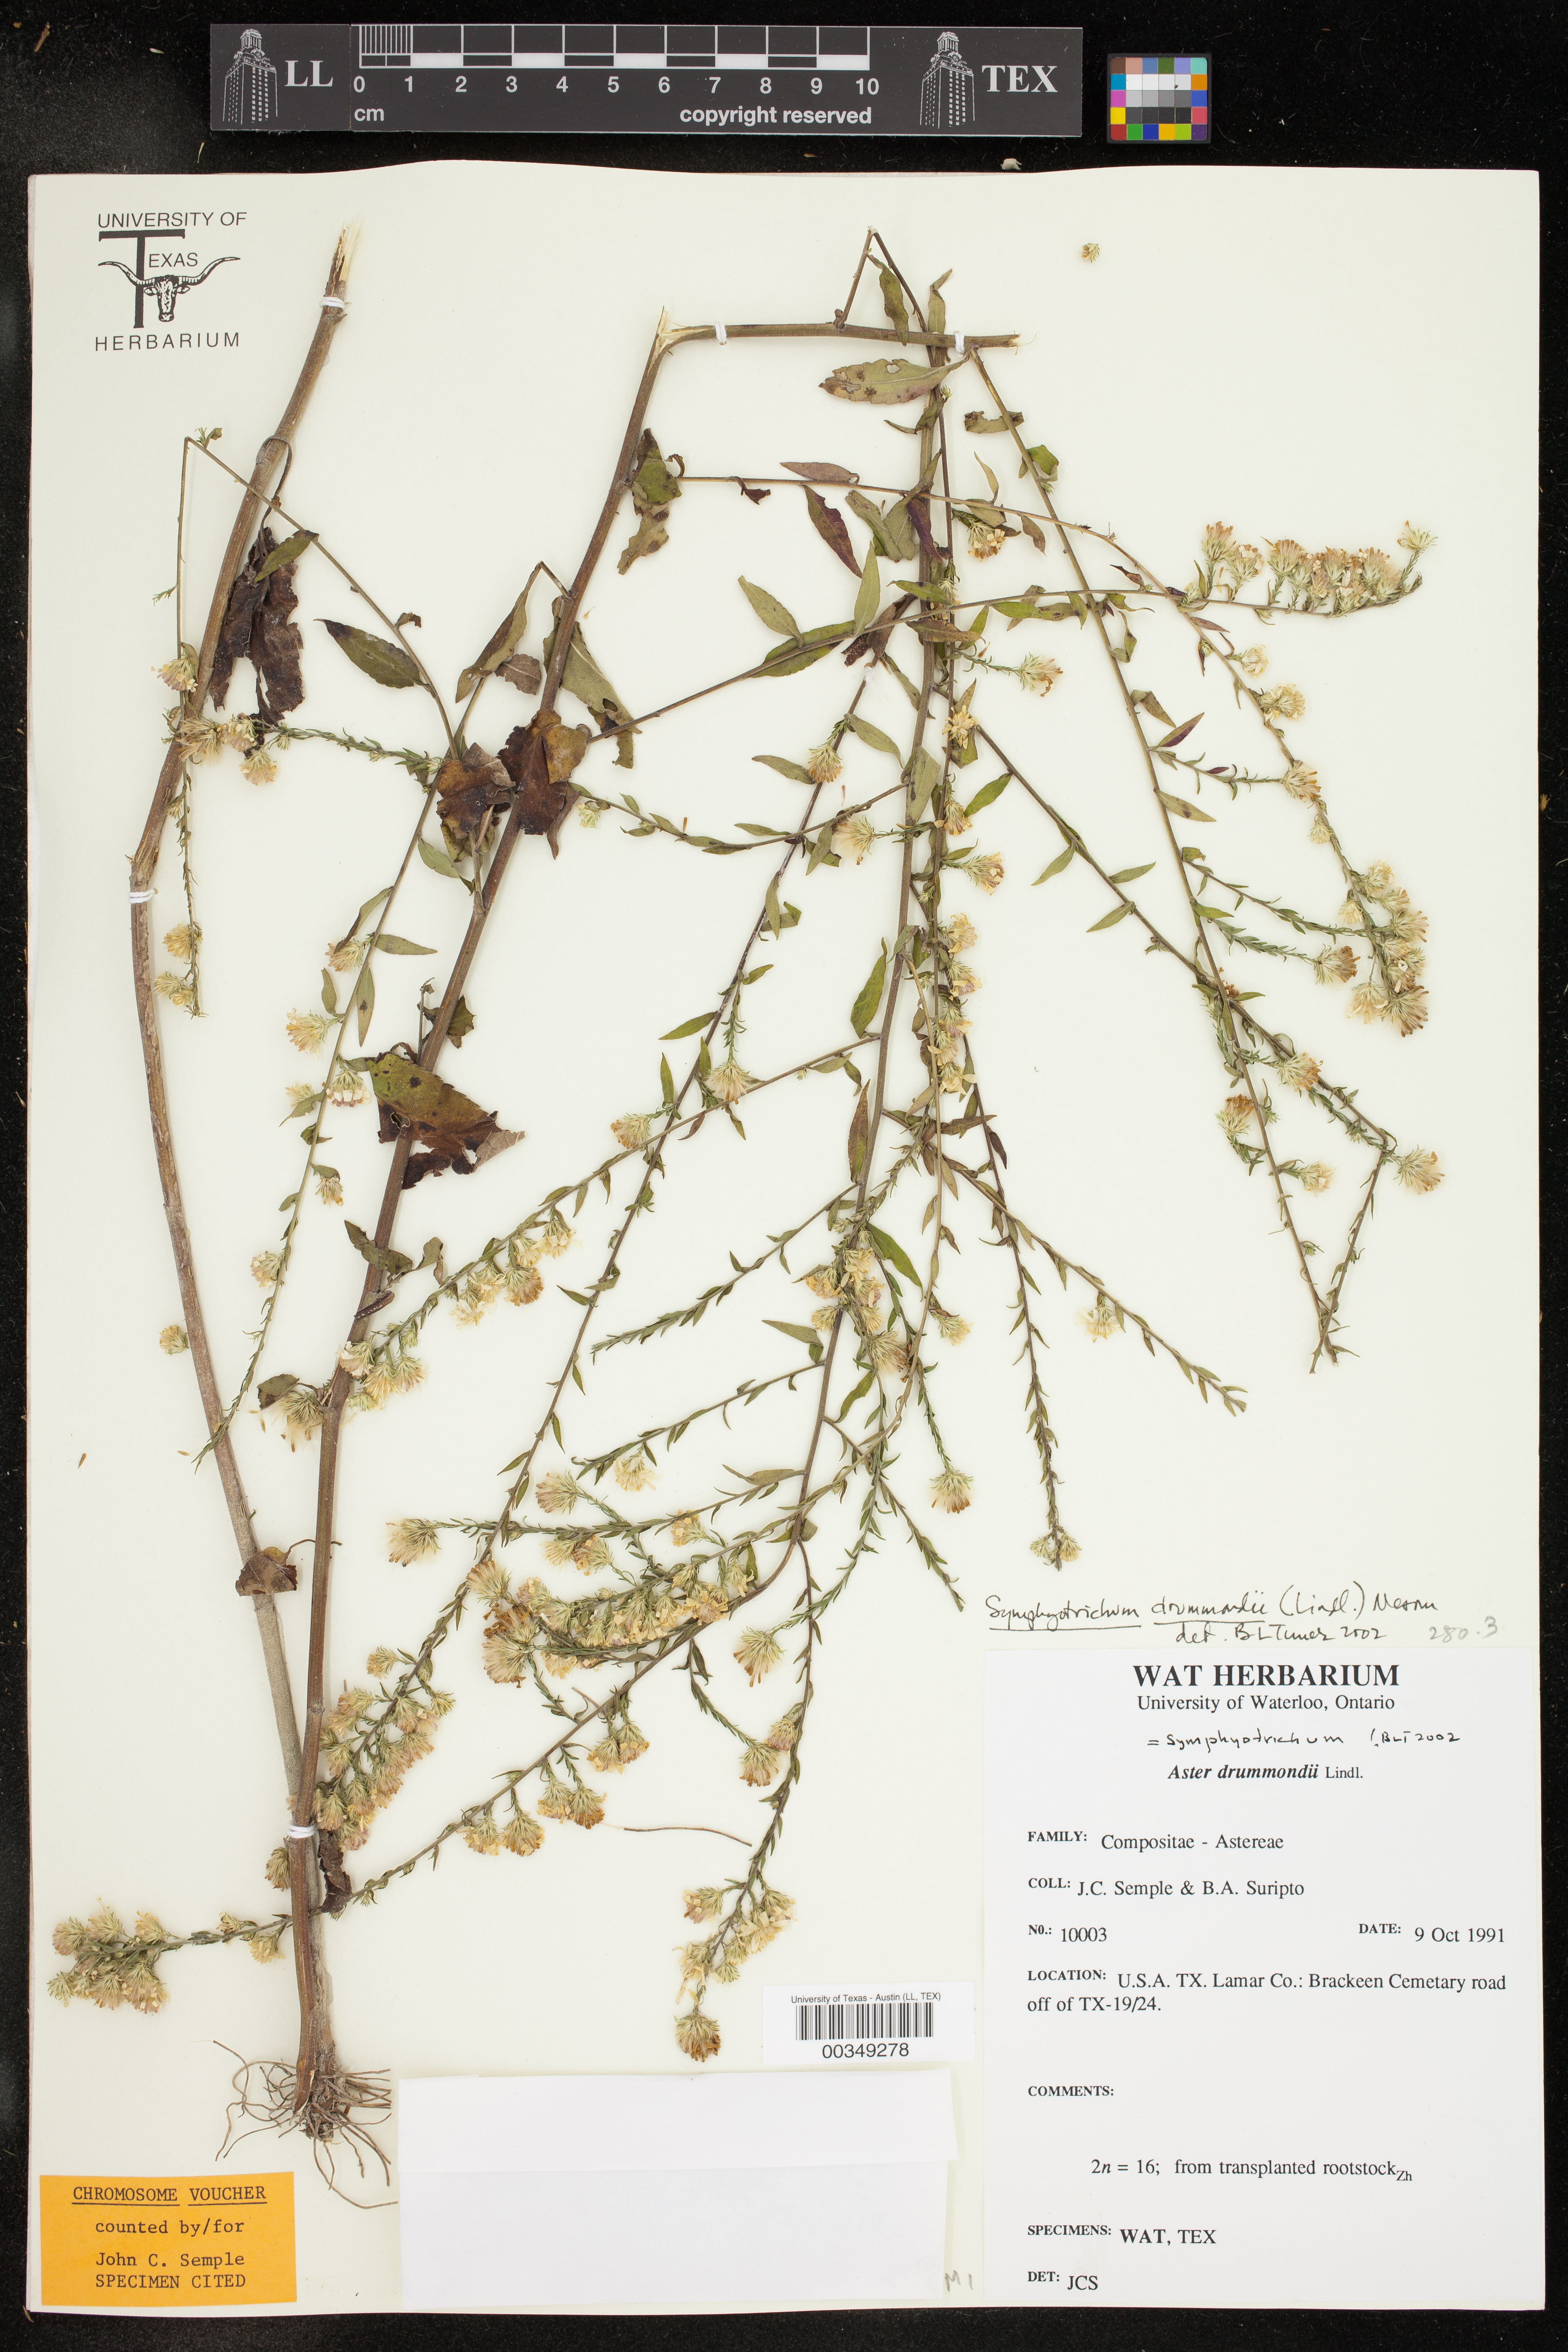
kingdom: Plantae
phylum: Tracheophyta
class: Magnoliopsida
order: Asterales
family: Asteraceae
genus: Symphyotrichum
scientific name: Symphyotrichum drummondii
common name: Drummond's aster
